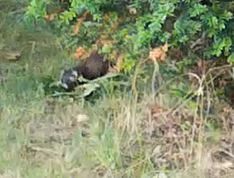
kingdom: Animalia
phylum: Chordata
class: Mammalia
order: Carnivora
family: Mustelidae
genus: Mustela
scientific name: Mustela putorius
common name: Ilder
